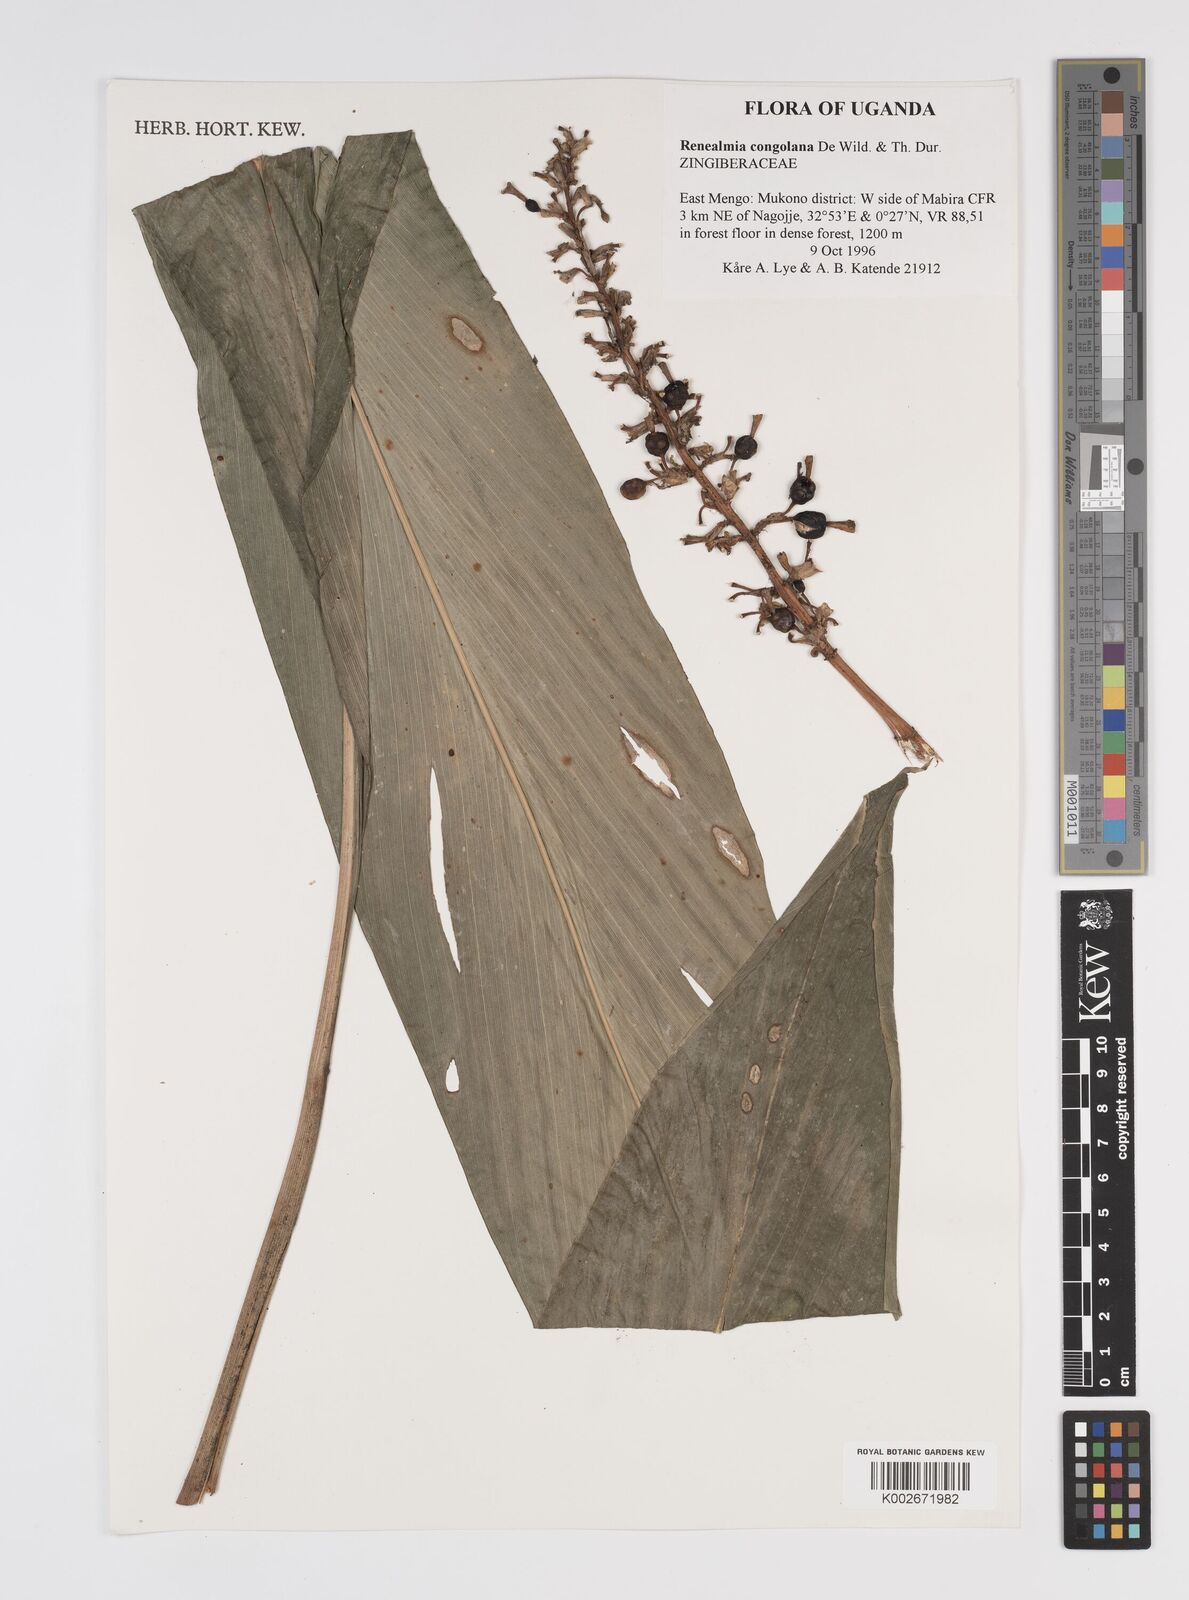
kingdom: Plantae
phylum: Tracheophyta
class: Liliopsida
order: Zingiberales
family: Zingiberaceae
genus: Renealmia
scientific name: Renealmia congolana
